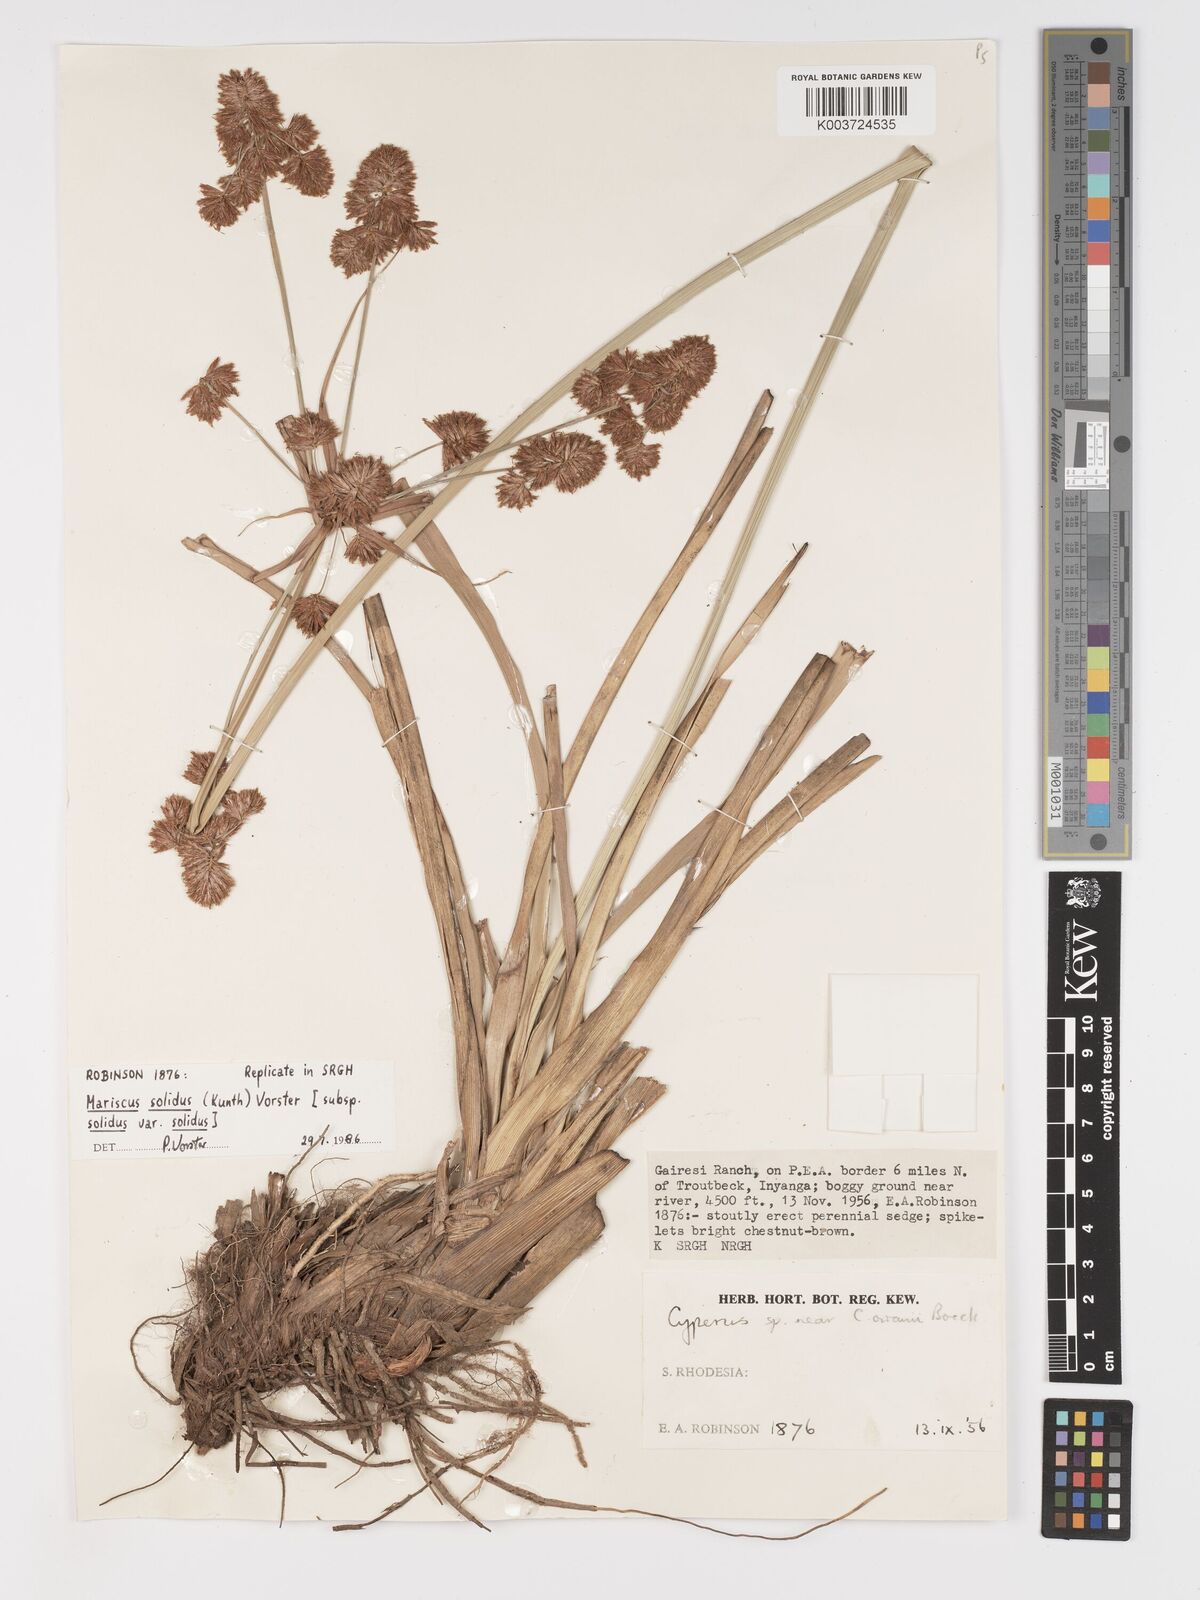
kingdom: Plantae
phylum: Tracheophyta
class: Liliopsida
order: Poales
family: Cyperaceae
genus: Cyperus
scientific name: Cyperus owanii
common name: Owan's flatsedge
